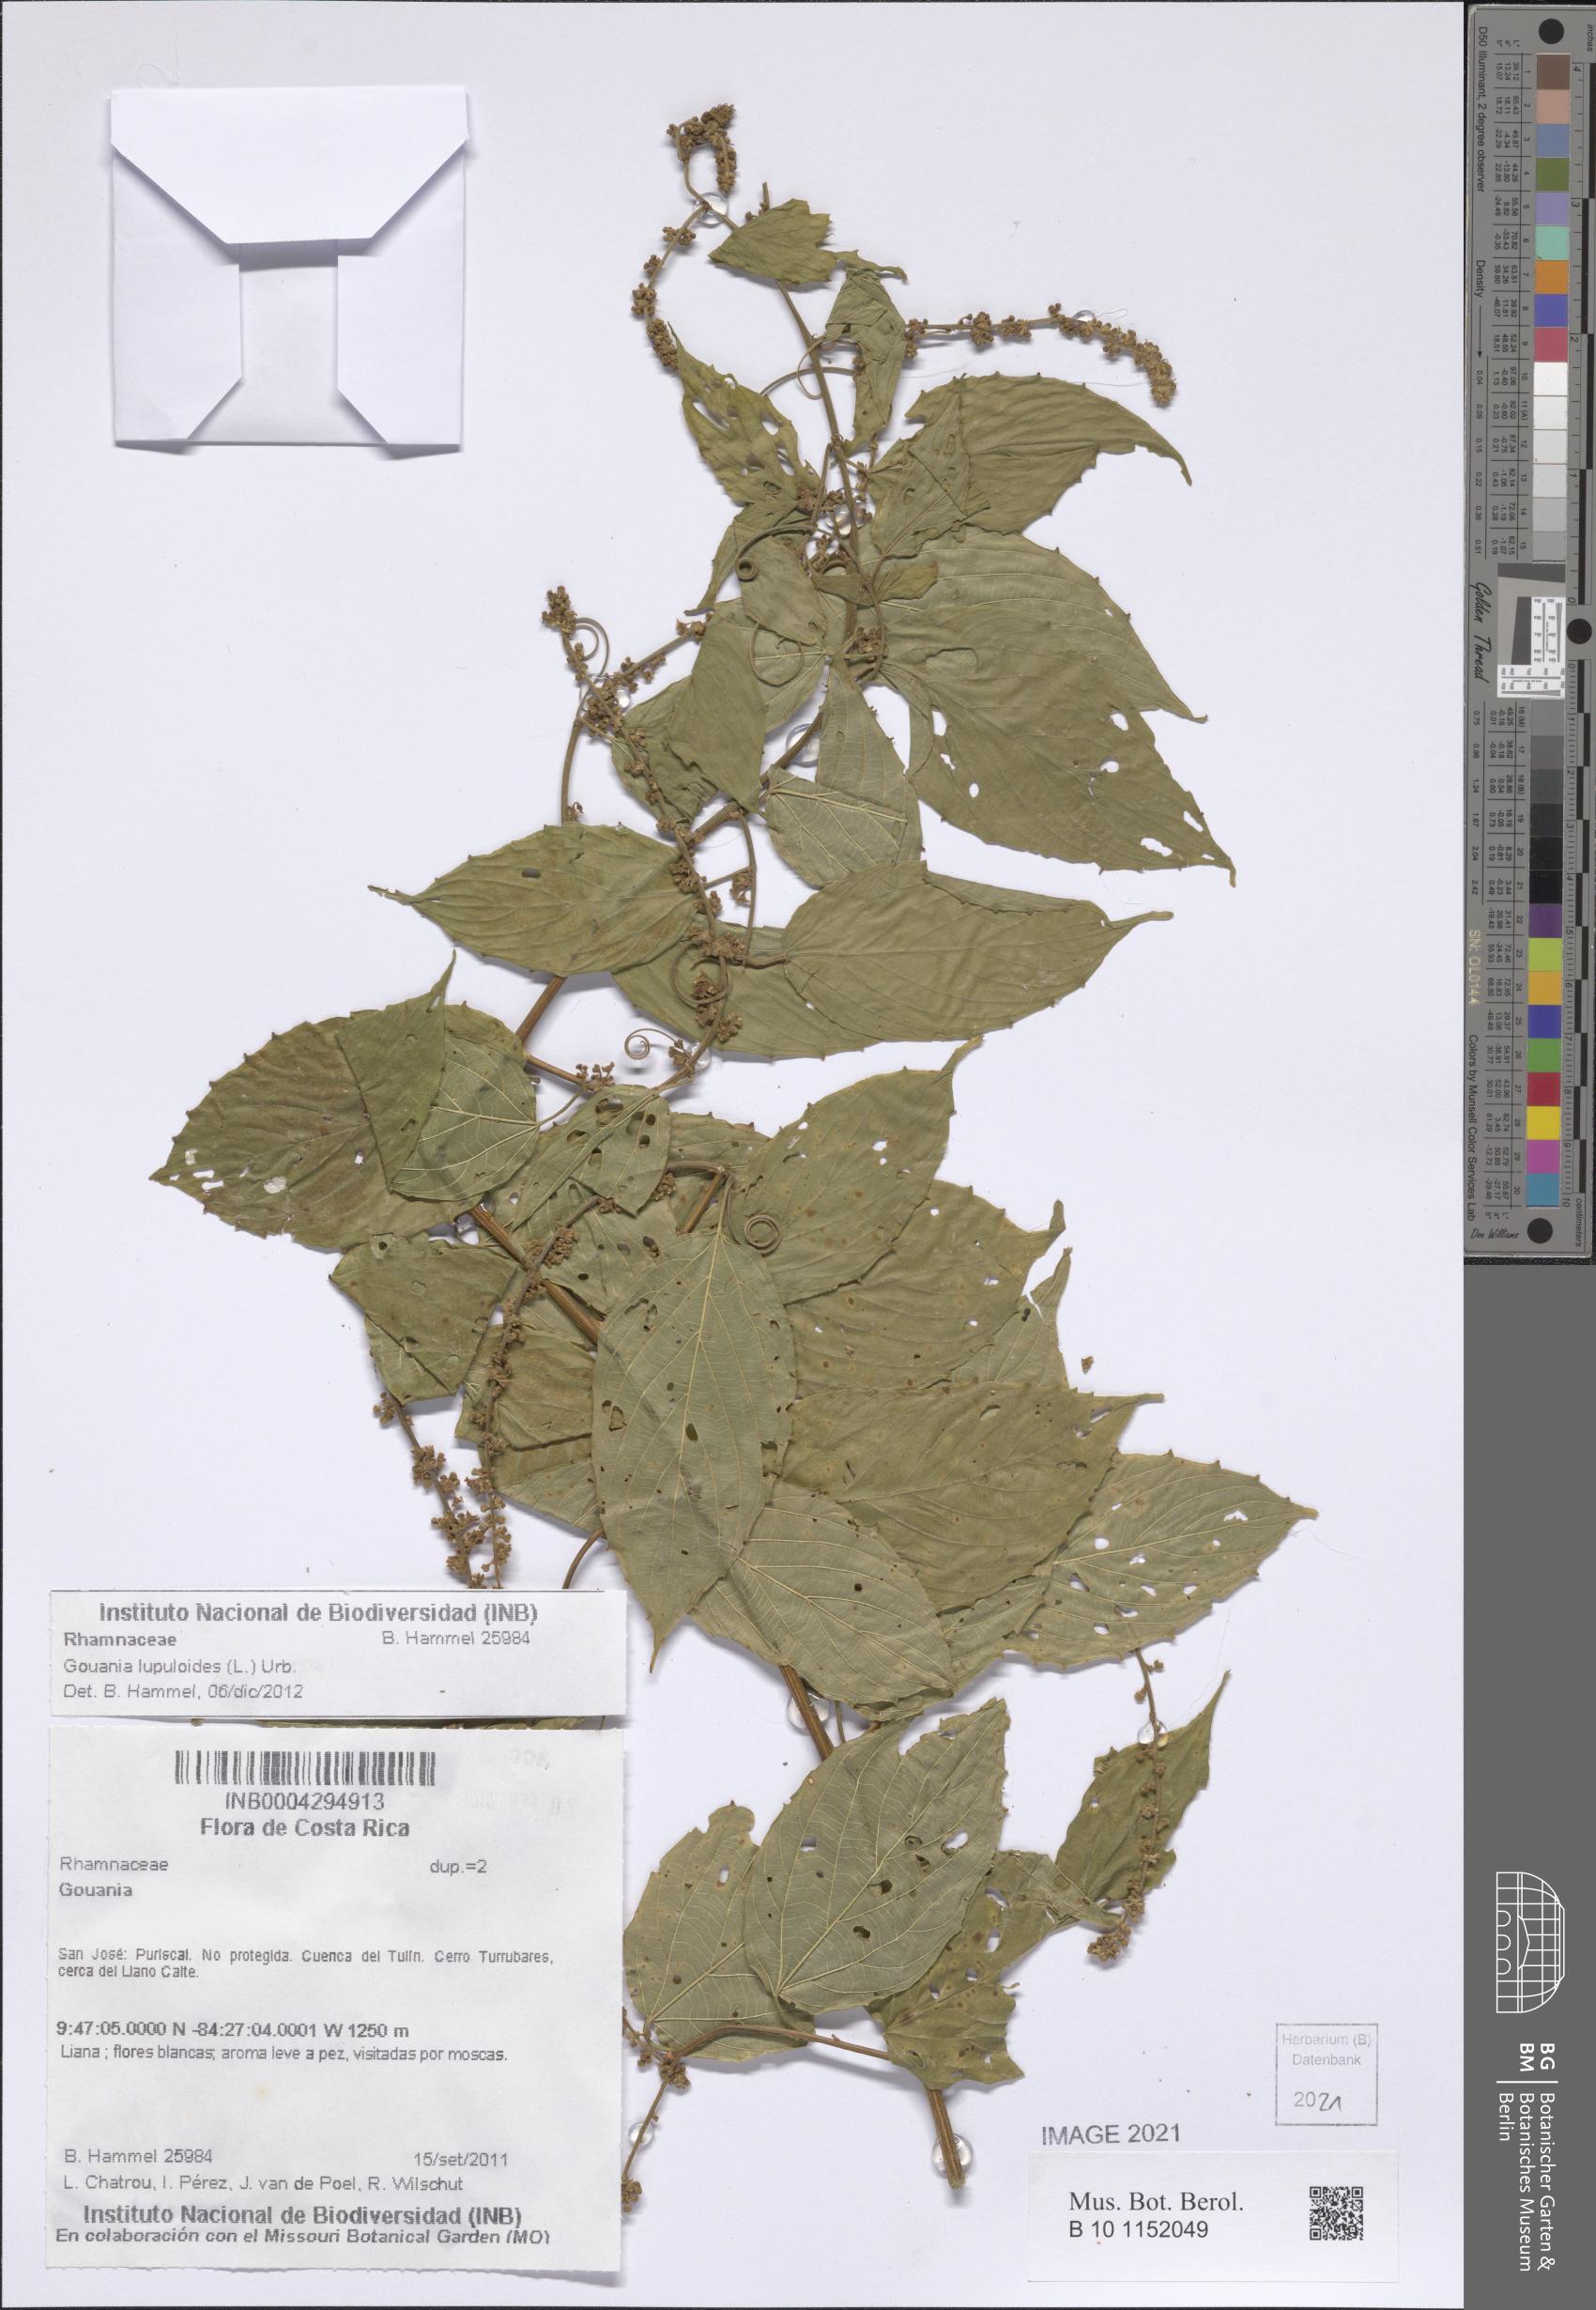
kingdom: Plantae
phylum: Tracheophyta
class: Magnoliopsida
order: Rosales
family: Rhamnaceae
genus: Gouania
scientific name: Gouania lupuloides
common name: Chewstick
